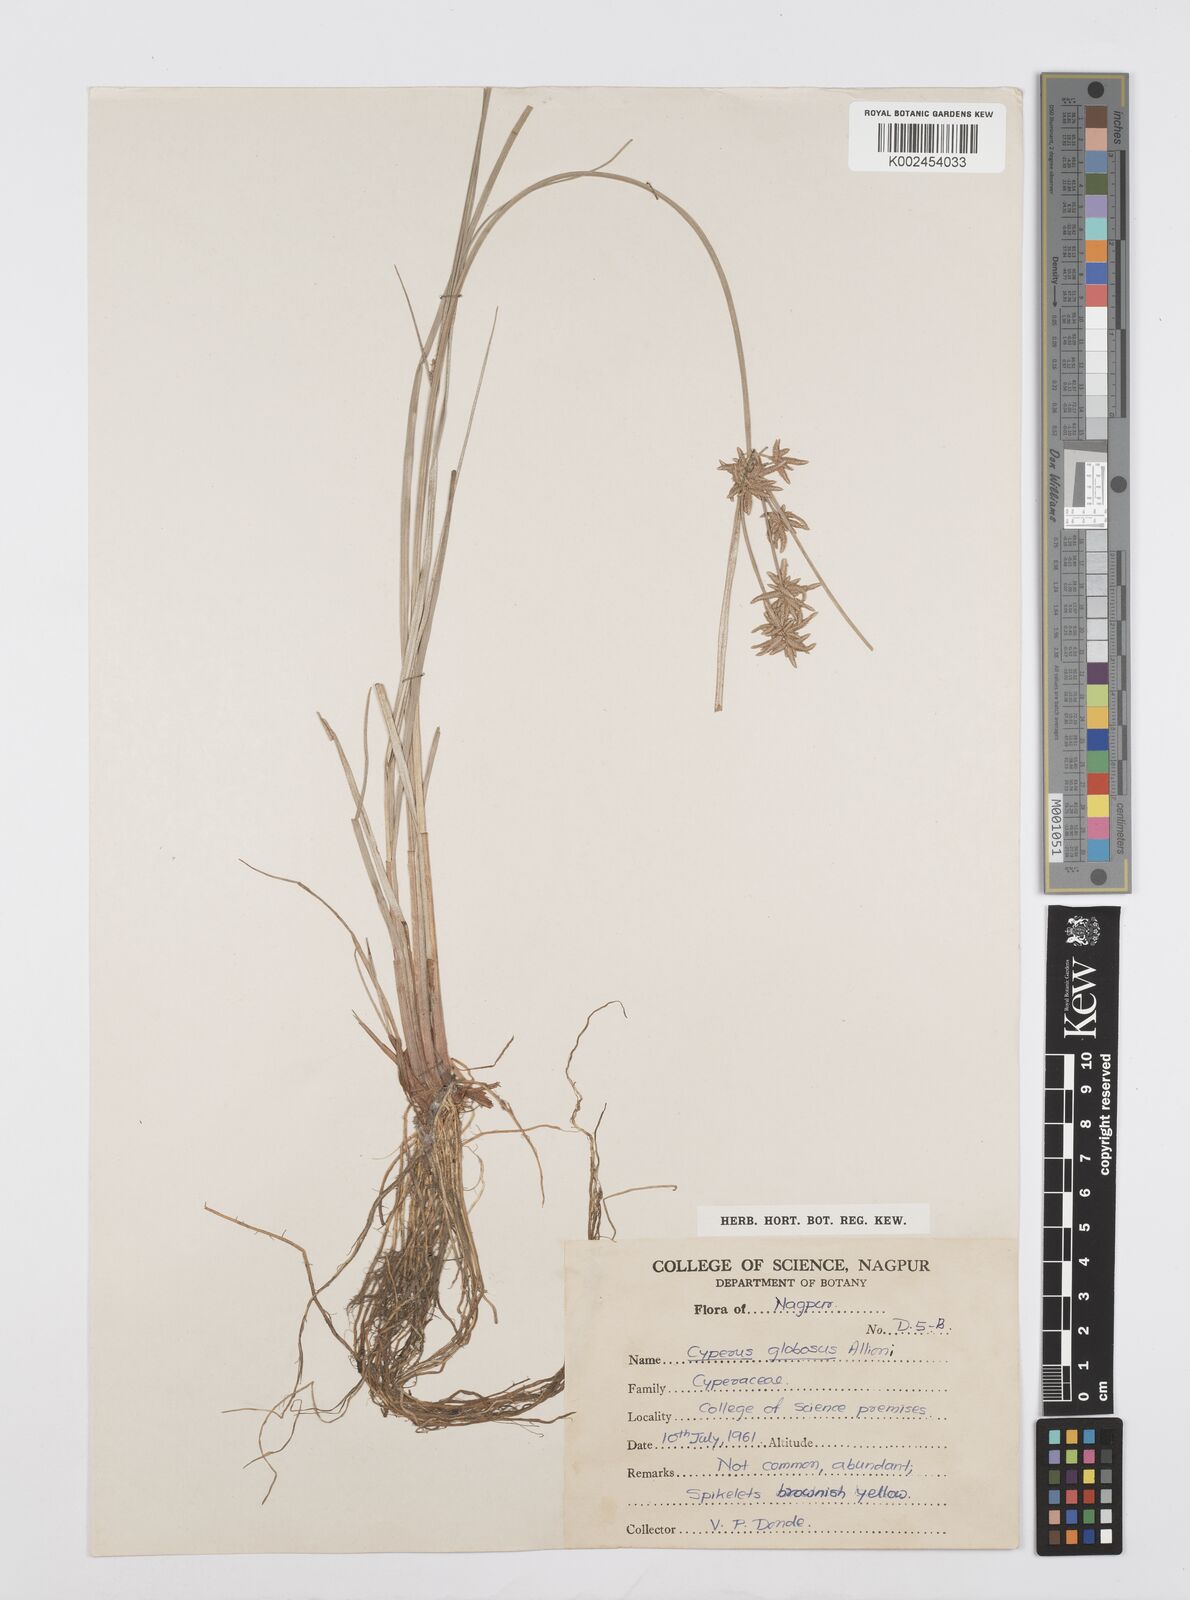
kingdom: Plantae
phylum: Tracheophyta
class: Liliopsida
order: Poales
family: Cyperaceae
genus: Cyperus
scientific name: Cyperus flavidus
